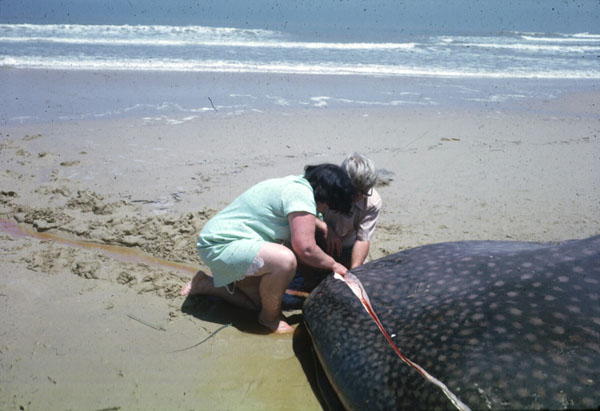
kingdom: Animalia
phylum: Chordata
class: Elasmobranchii
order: Orectolobiformes
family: Rhincodontidae
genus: Rhincodon
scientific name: Rhincodon typus
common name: Whale shark
